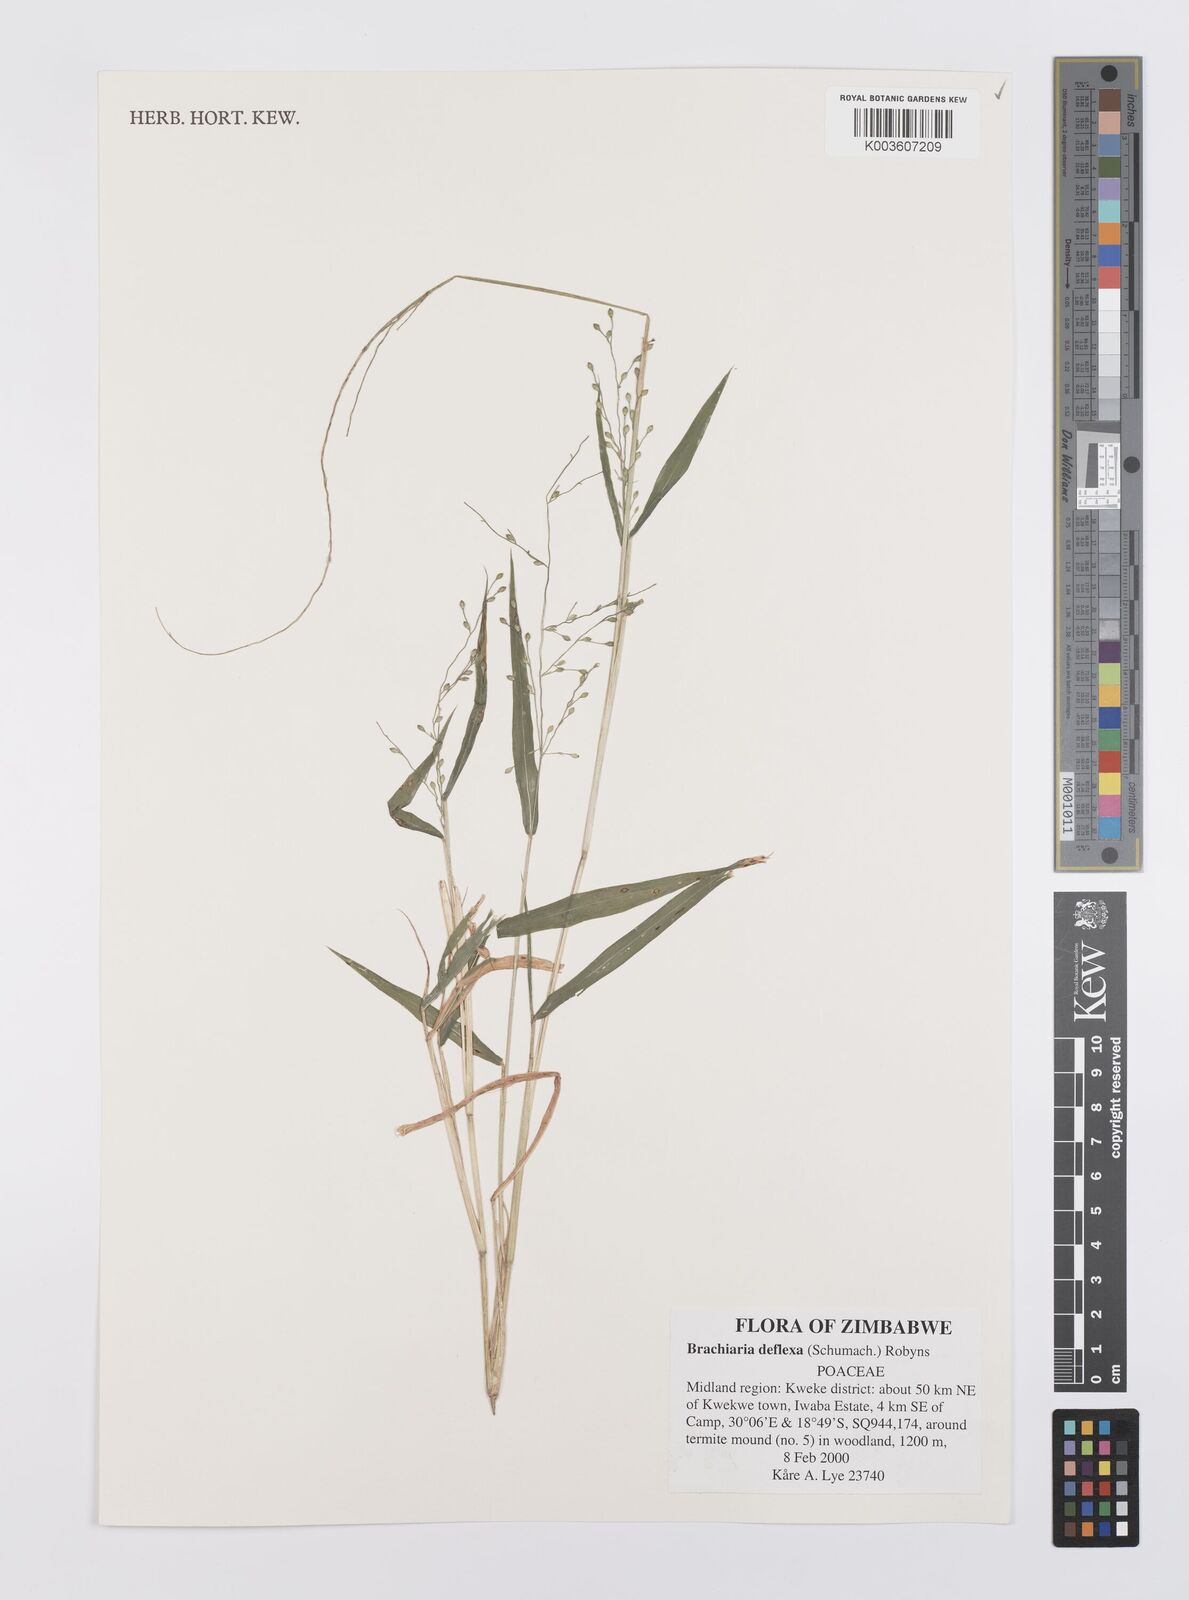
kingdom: Plantae
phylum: Tracheophyta
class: Liliopsida
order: Poales
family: Poaceae
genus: Urochloa
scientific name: Urochloa deflexa
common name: Guinea millet
